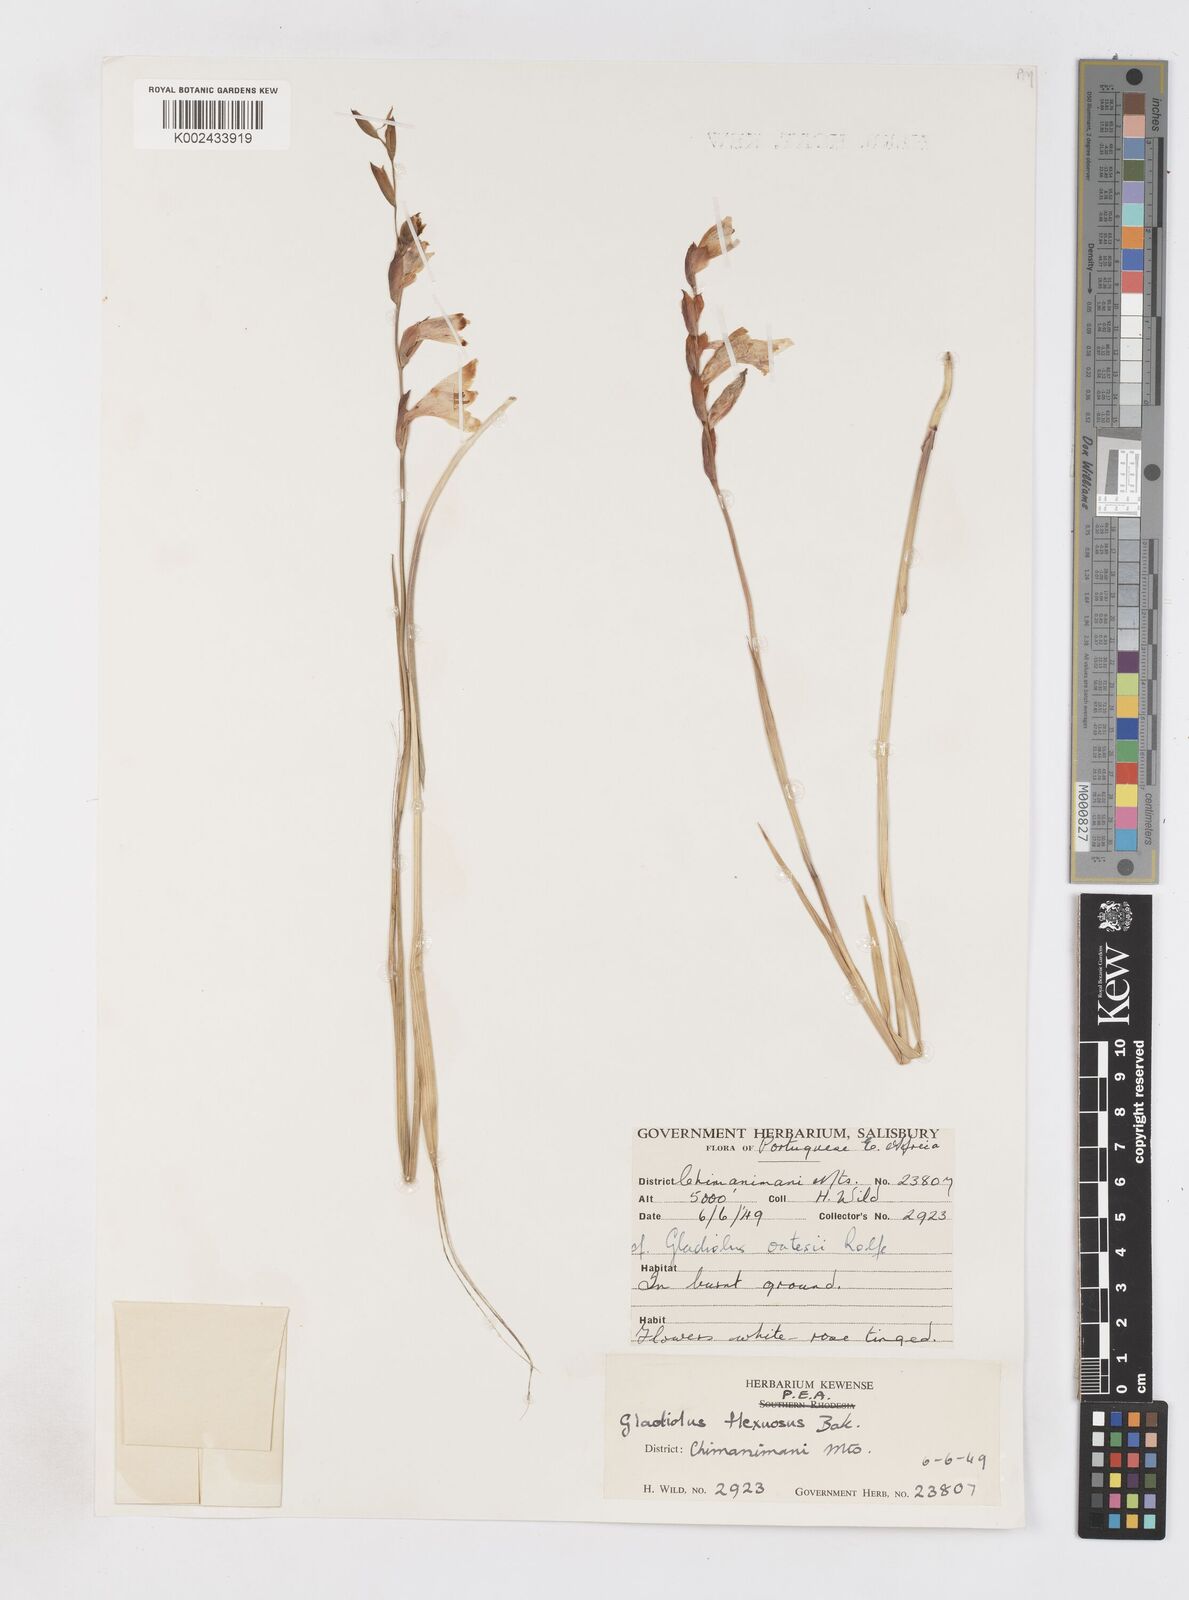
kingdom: Plantae
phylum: Tracheophyta
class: Liliopsida
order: Asparagales
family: Iridaceae
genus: Gladiolus
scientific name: Gladiolus atropurpureus
